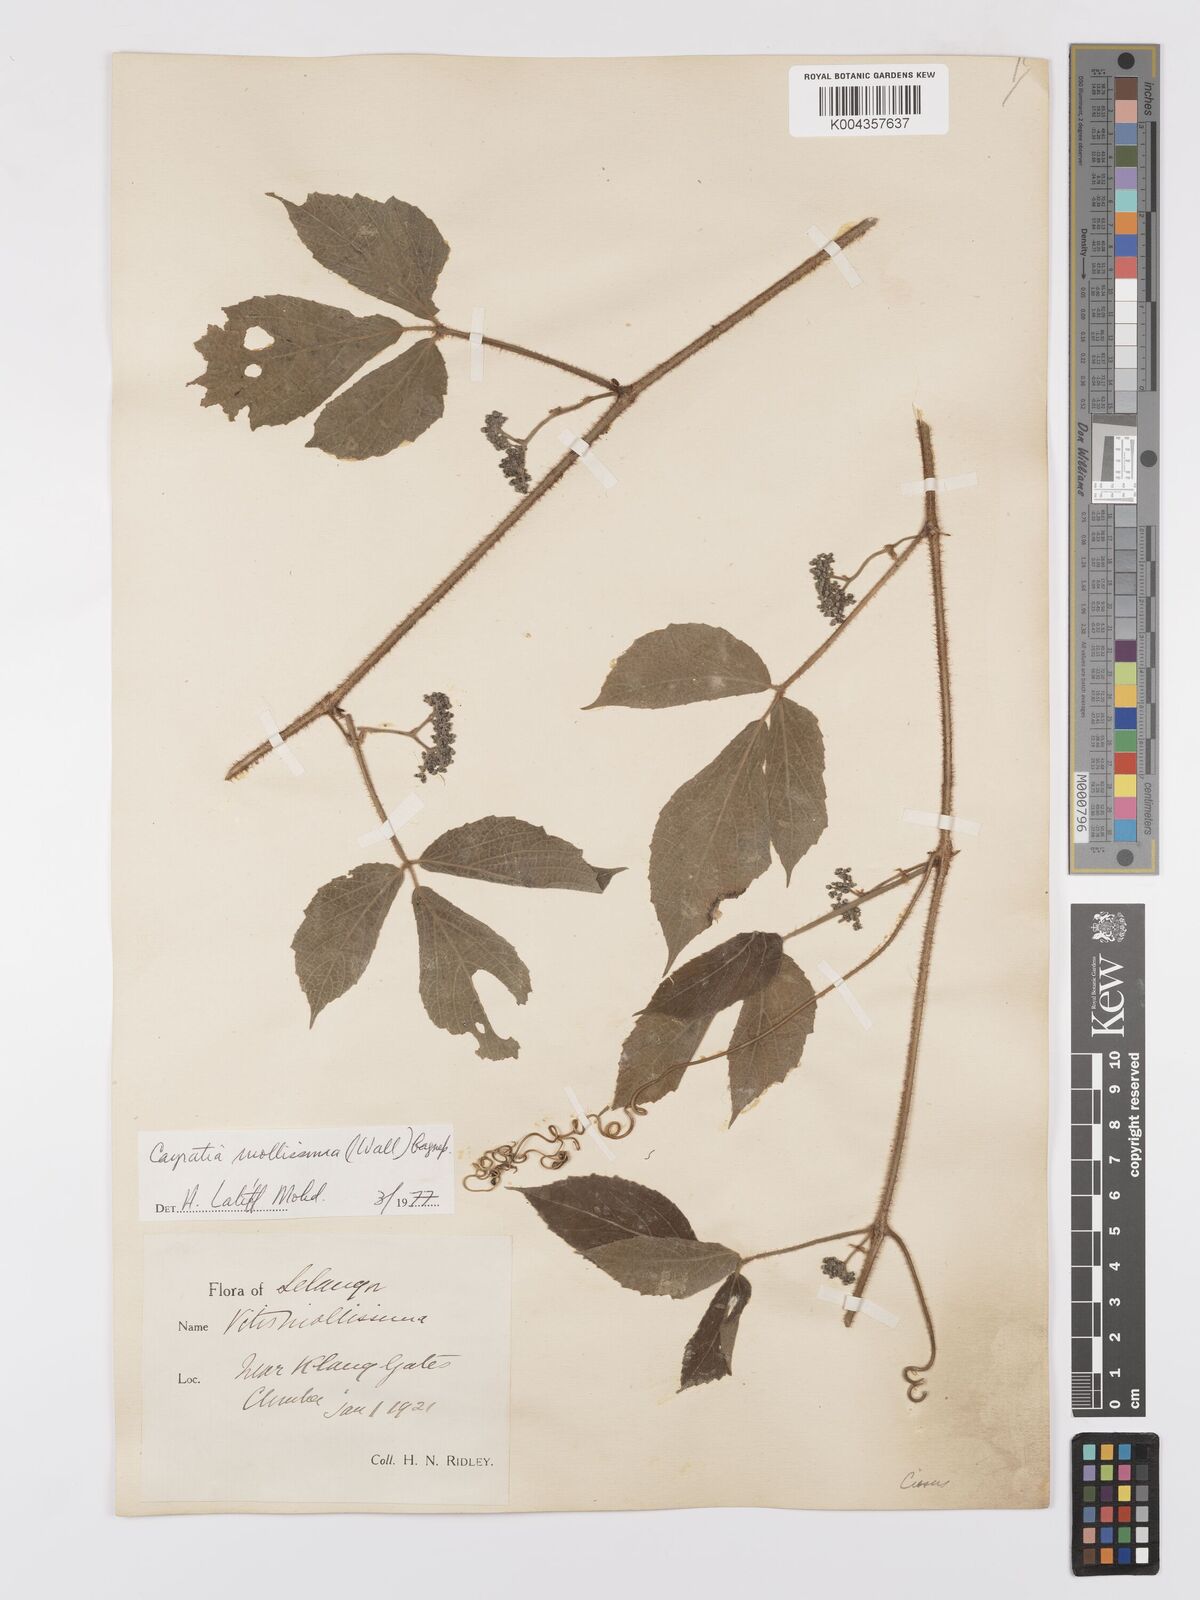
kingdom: Plantae
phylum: Tracheophyta
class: Magnoliopsida
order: Vitales
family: Vitaceae
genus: Cayratia
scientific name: Cayratia mollissima
